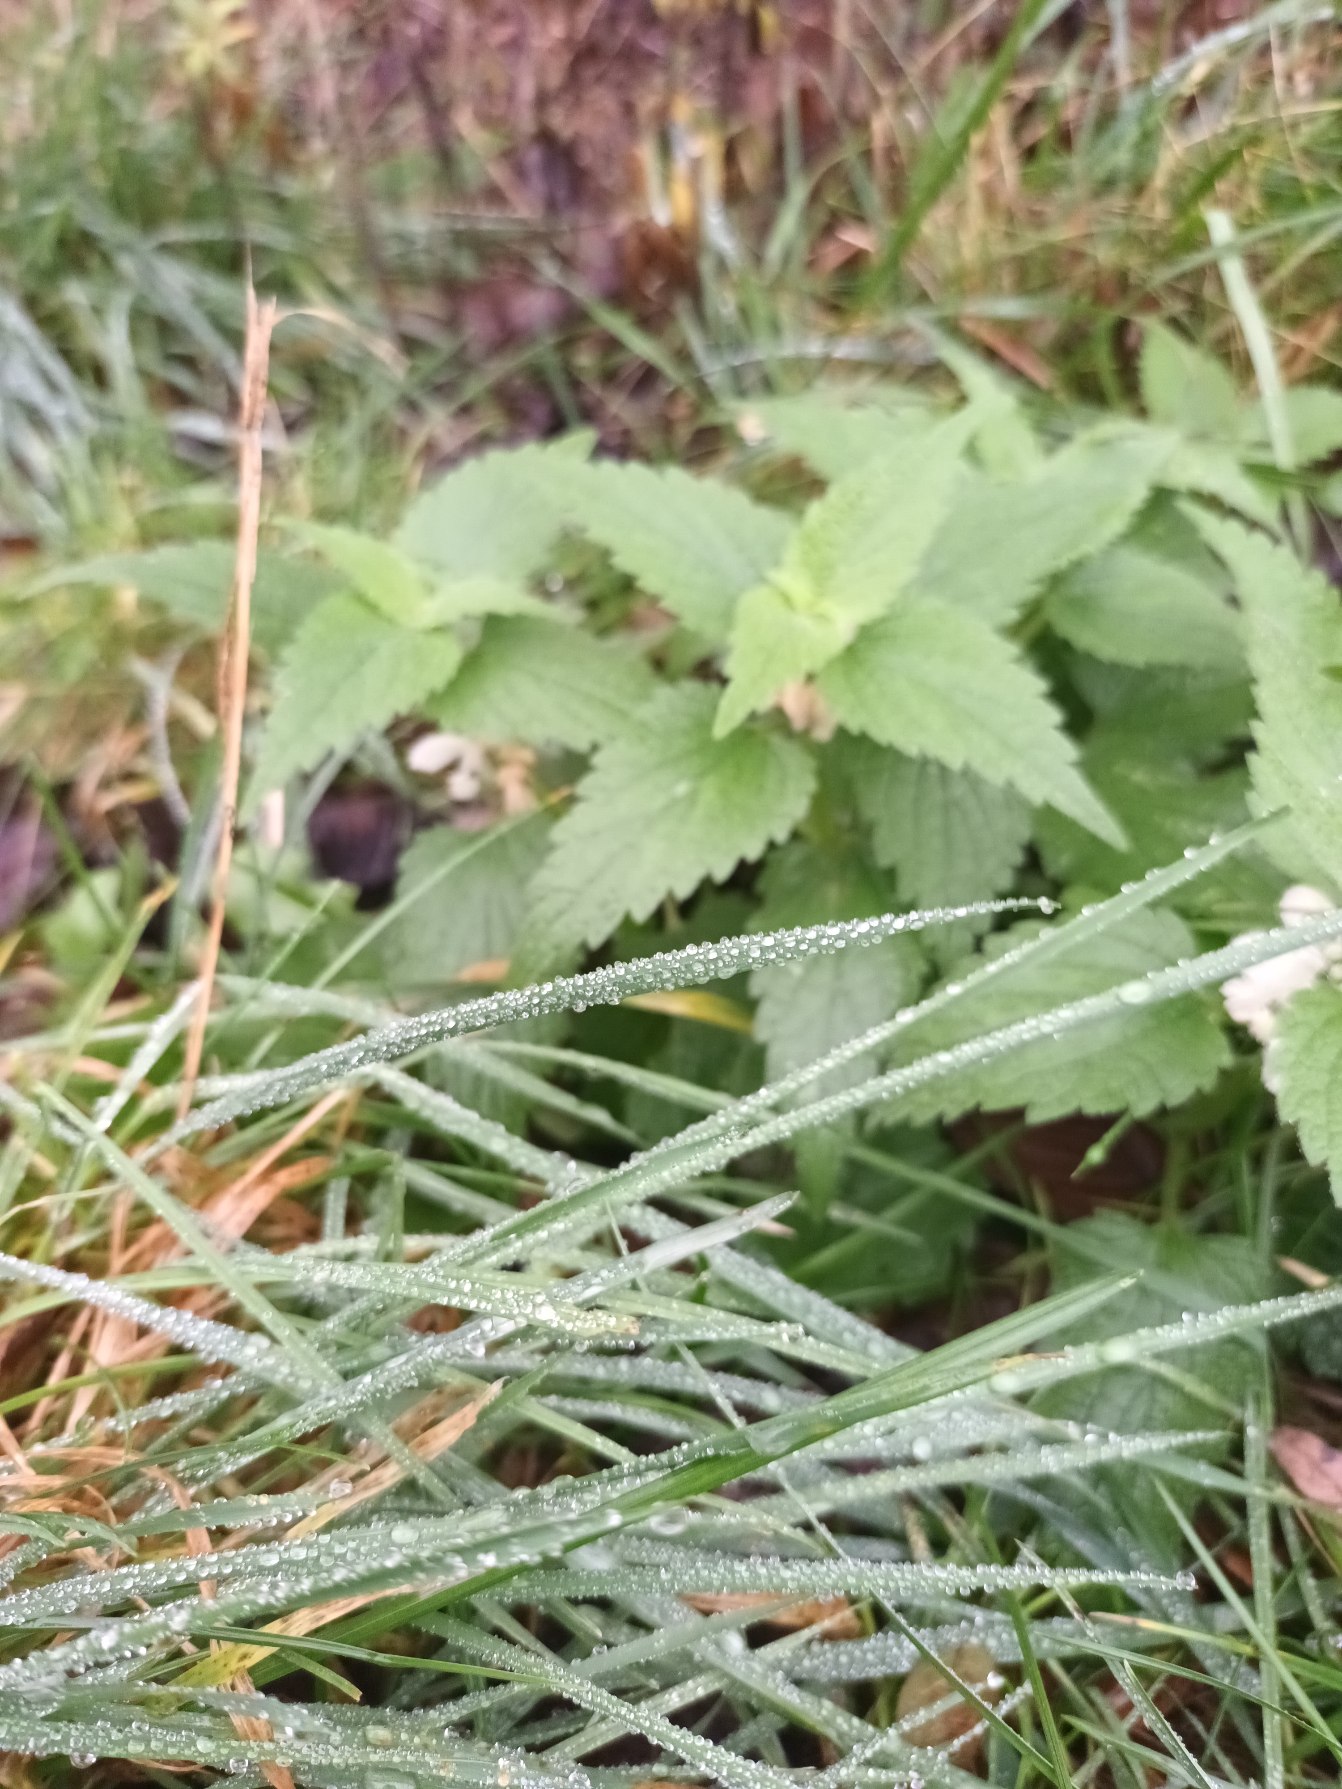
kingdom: Plantae
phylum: Tracheophyta
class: Magnoliopsida
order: Lamiales
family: Lamiaceae
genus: Lamium
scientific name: Lamium album
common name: Døvnælde
